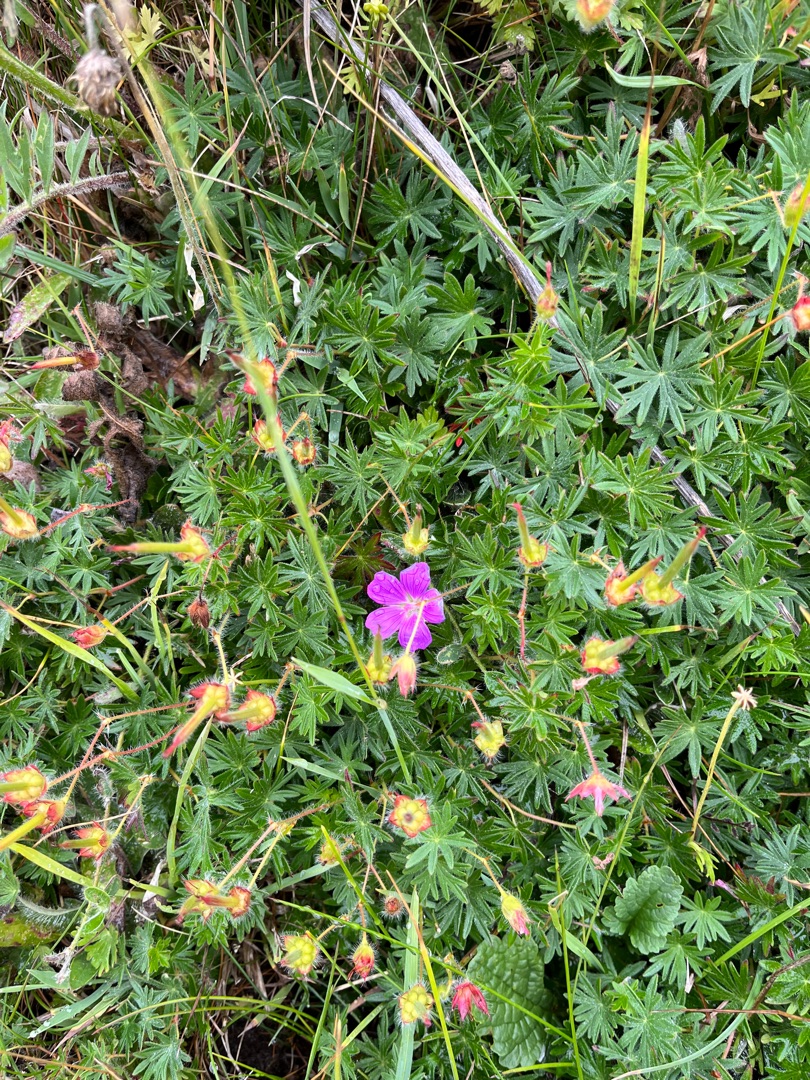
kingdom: Plantae
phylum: Tracheophyta
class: Magnoliopsida
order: Geraniales
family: Geraniaceae
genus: Geranium
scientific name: Geranium sanguineum
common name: Blodrød storkenæb
